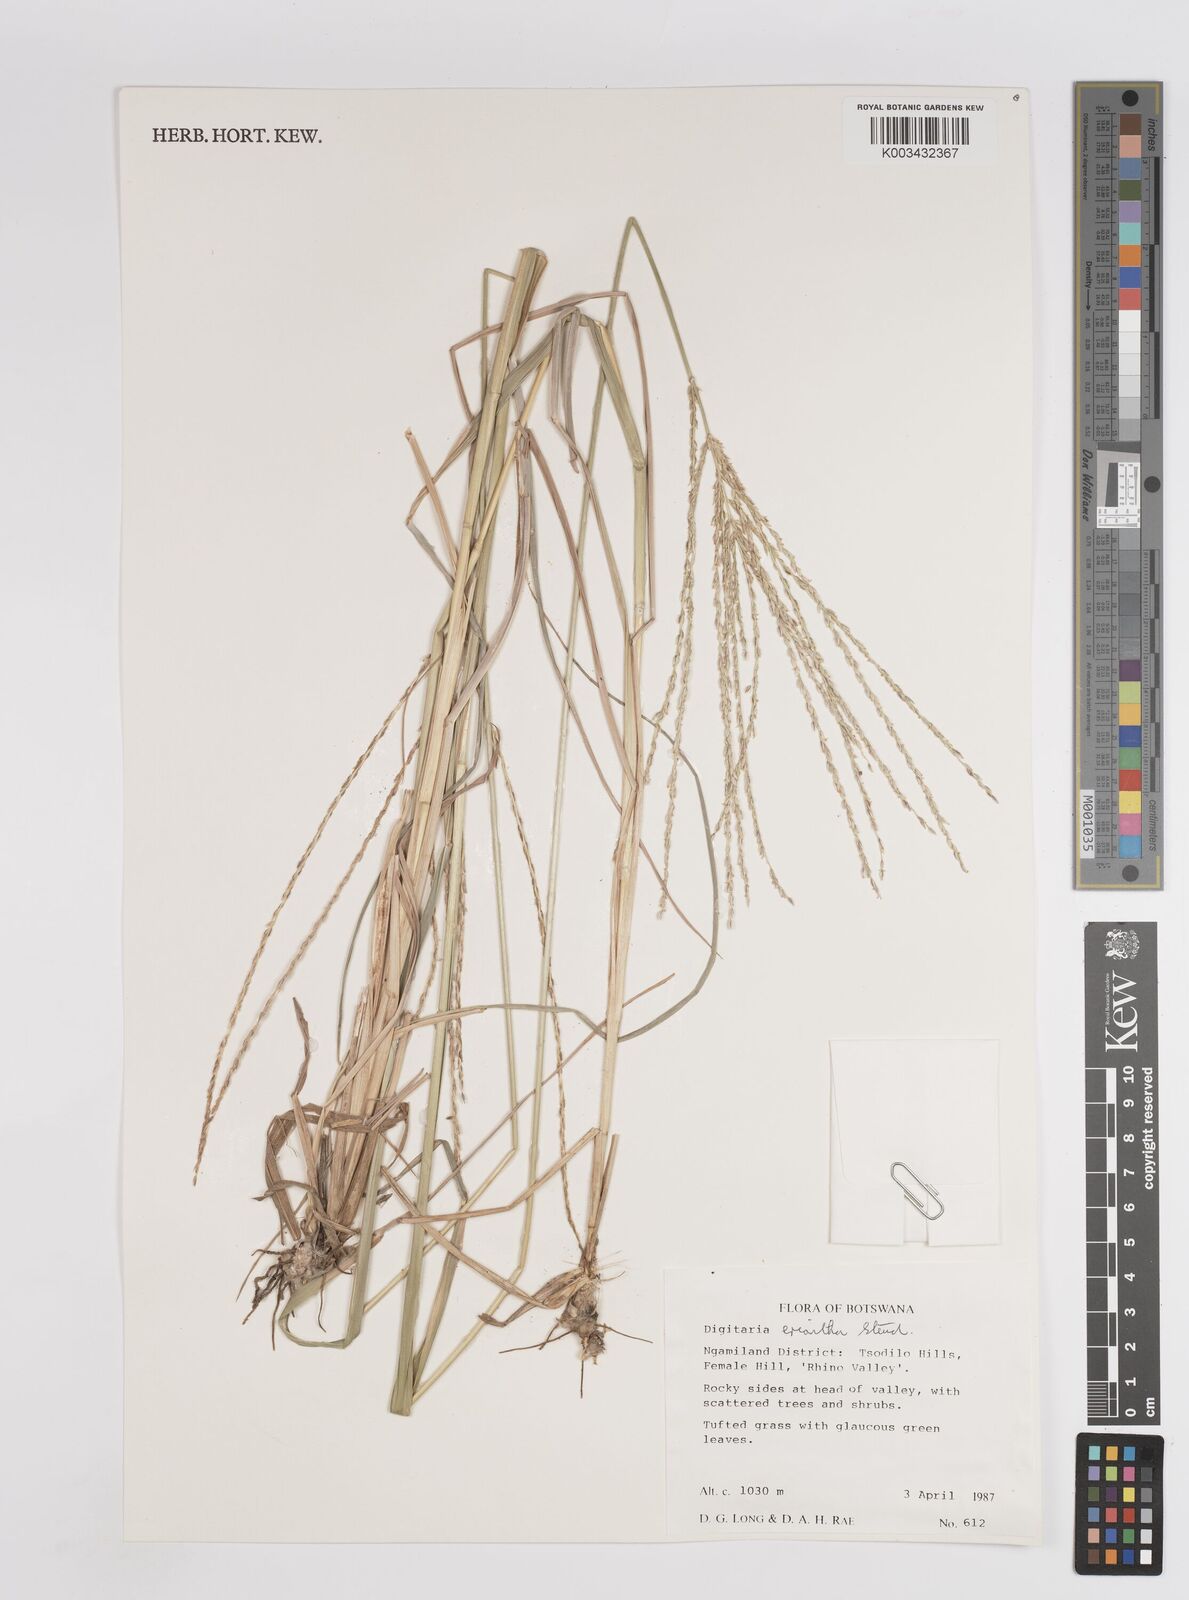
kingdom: Plantae
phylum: Tracheophyta
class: Liliopsida
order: Poales
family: Poaceae
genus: Digitaria
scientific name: Digitaria eriantha
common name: Digitgrass
